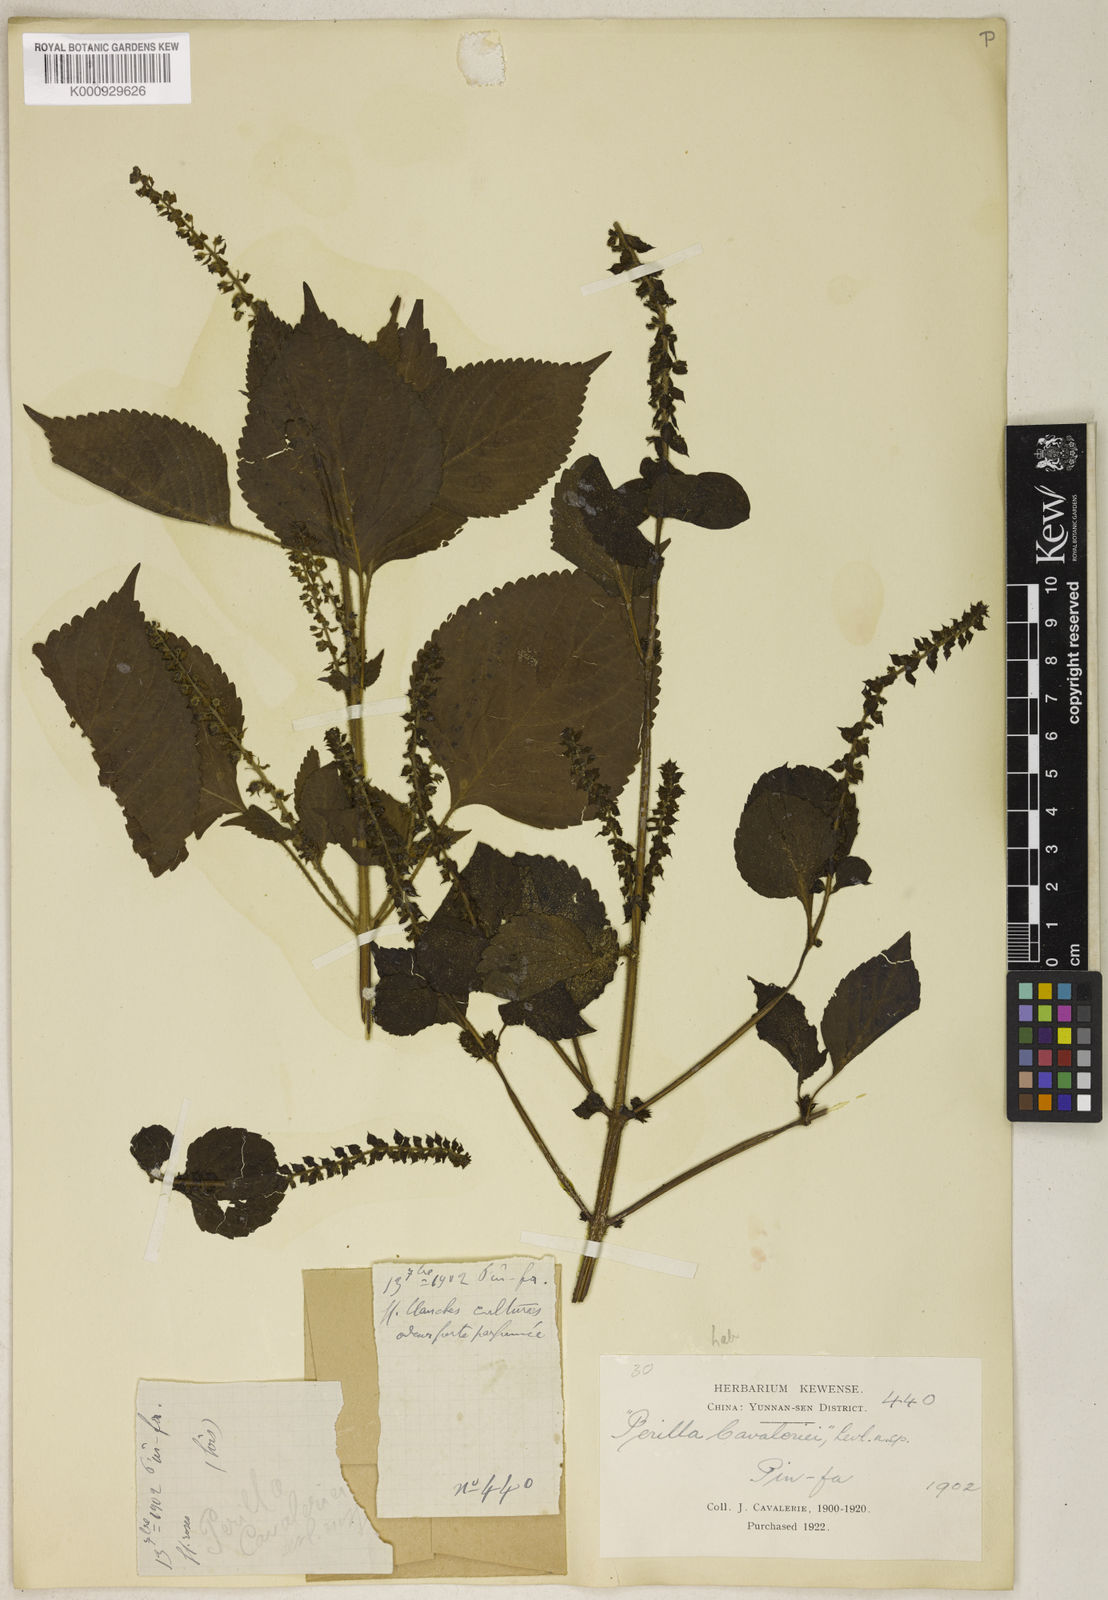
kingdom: Plantae
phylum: Tracheophyta
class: Magnoliopsida
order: Lamiales
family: Lamiaceae
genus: Perilla
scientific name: Perilla frutescens
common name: Perilla
